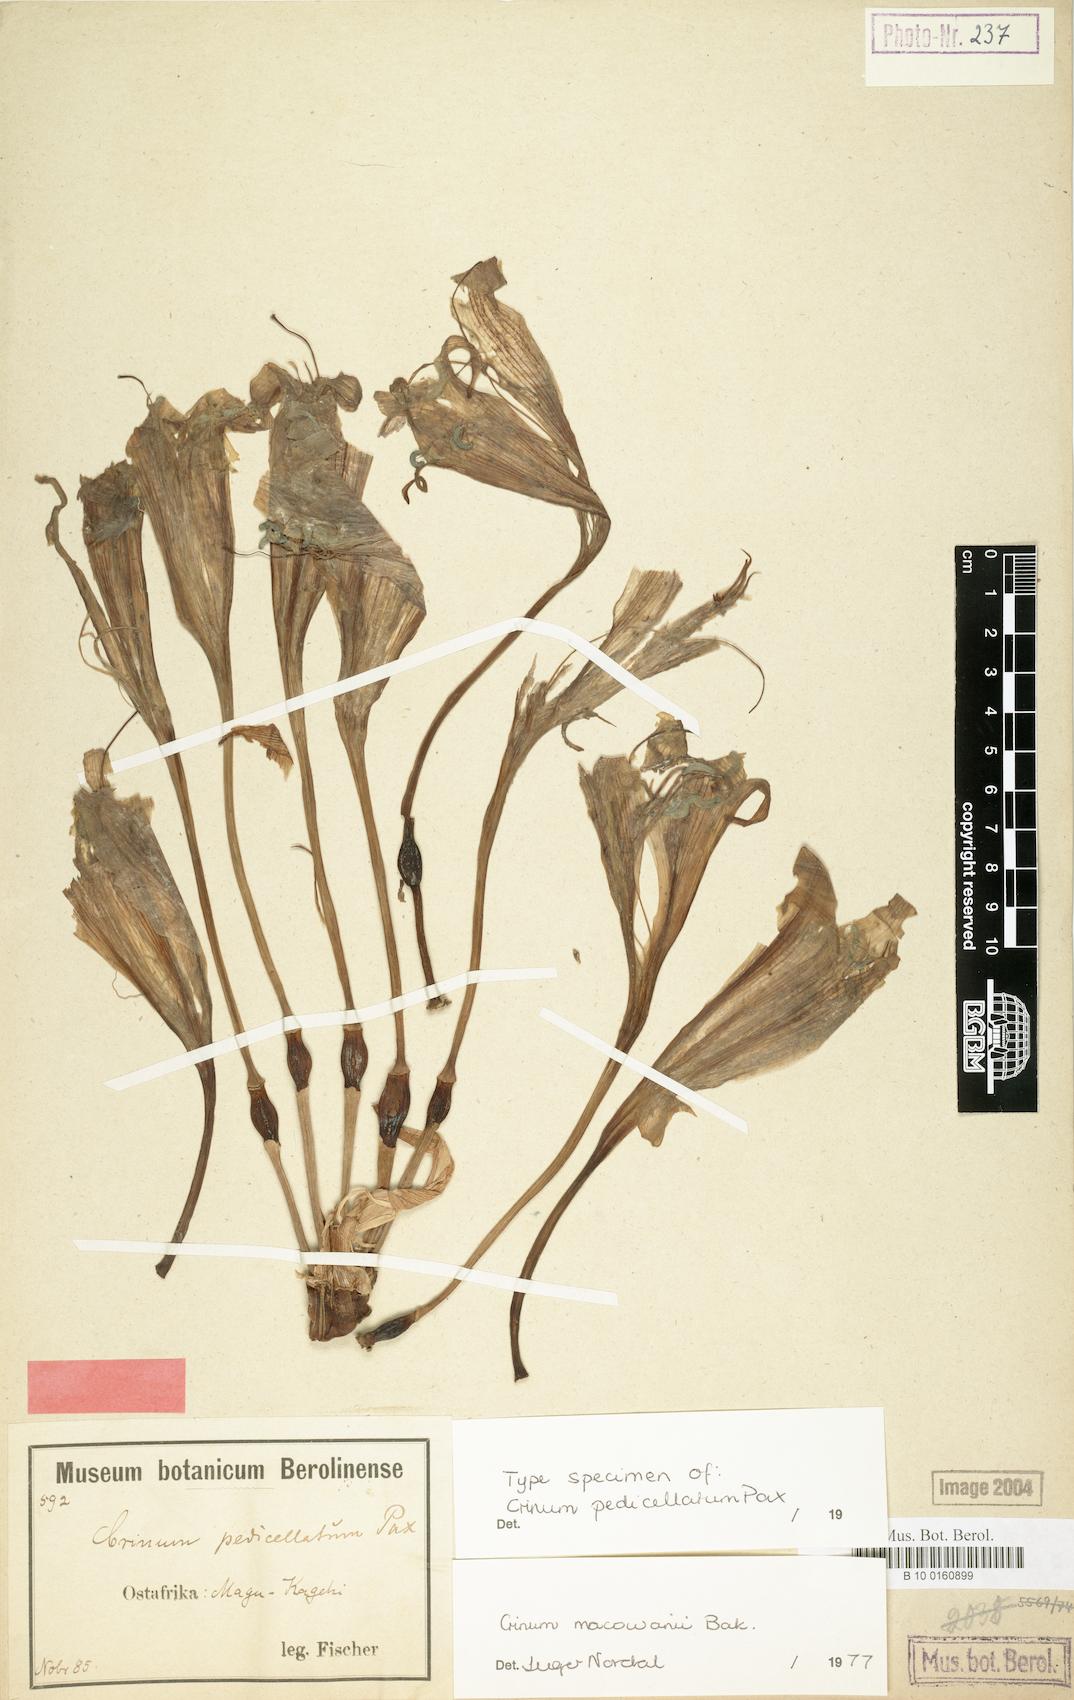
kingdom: Plantae
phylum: Tracheophyta
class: Liliopsida
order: Asparagales
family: Amaryllidaceae
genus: Crinum
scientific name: Crinum macowanii
